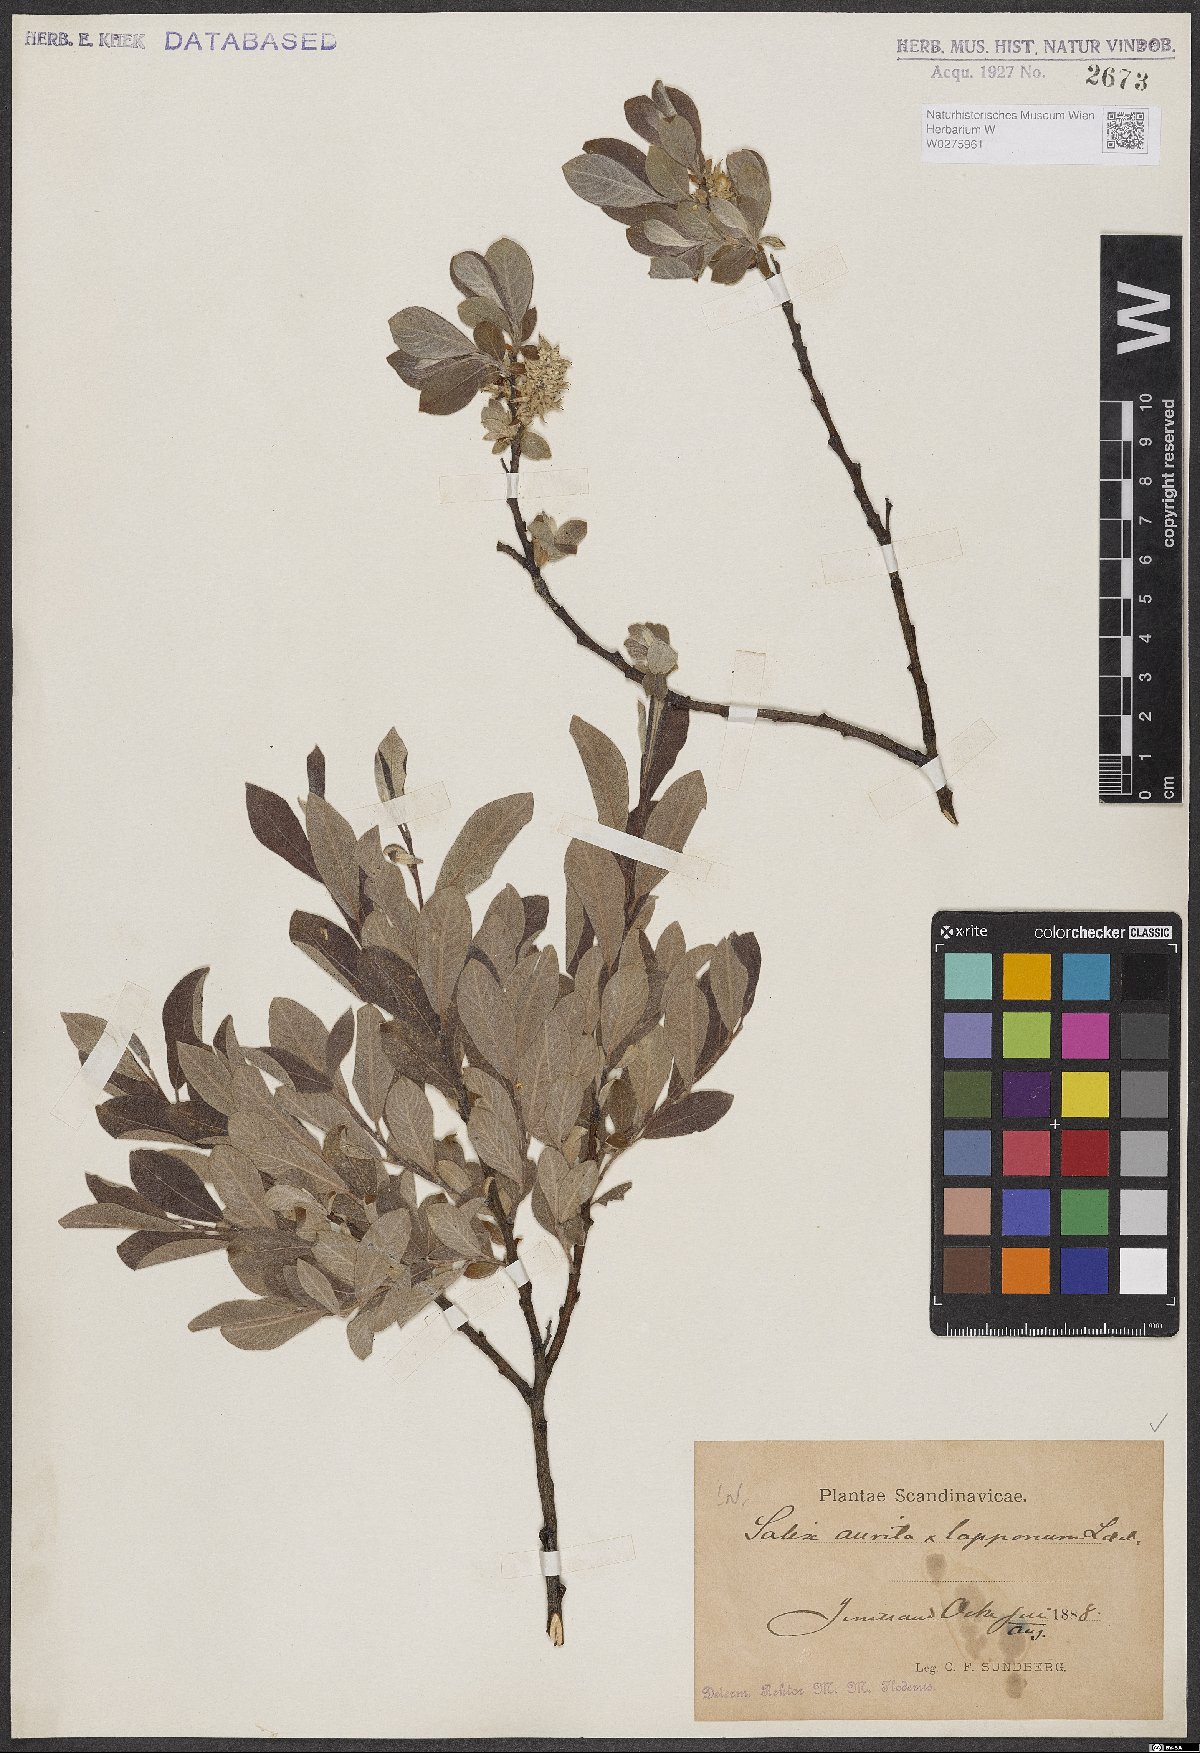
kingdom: Plantae
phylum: Tracheophyta
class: Magnoliopsida
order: Malpighiales
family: Salicaceae
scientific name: Salicaceae
